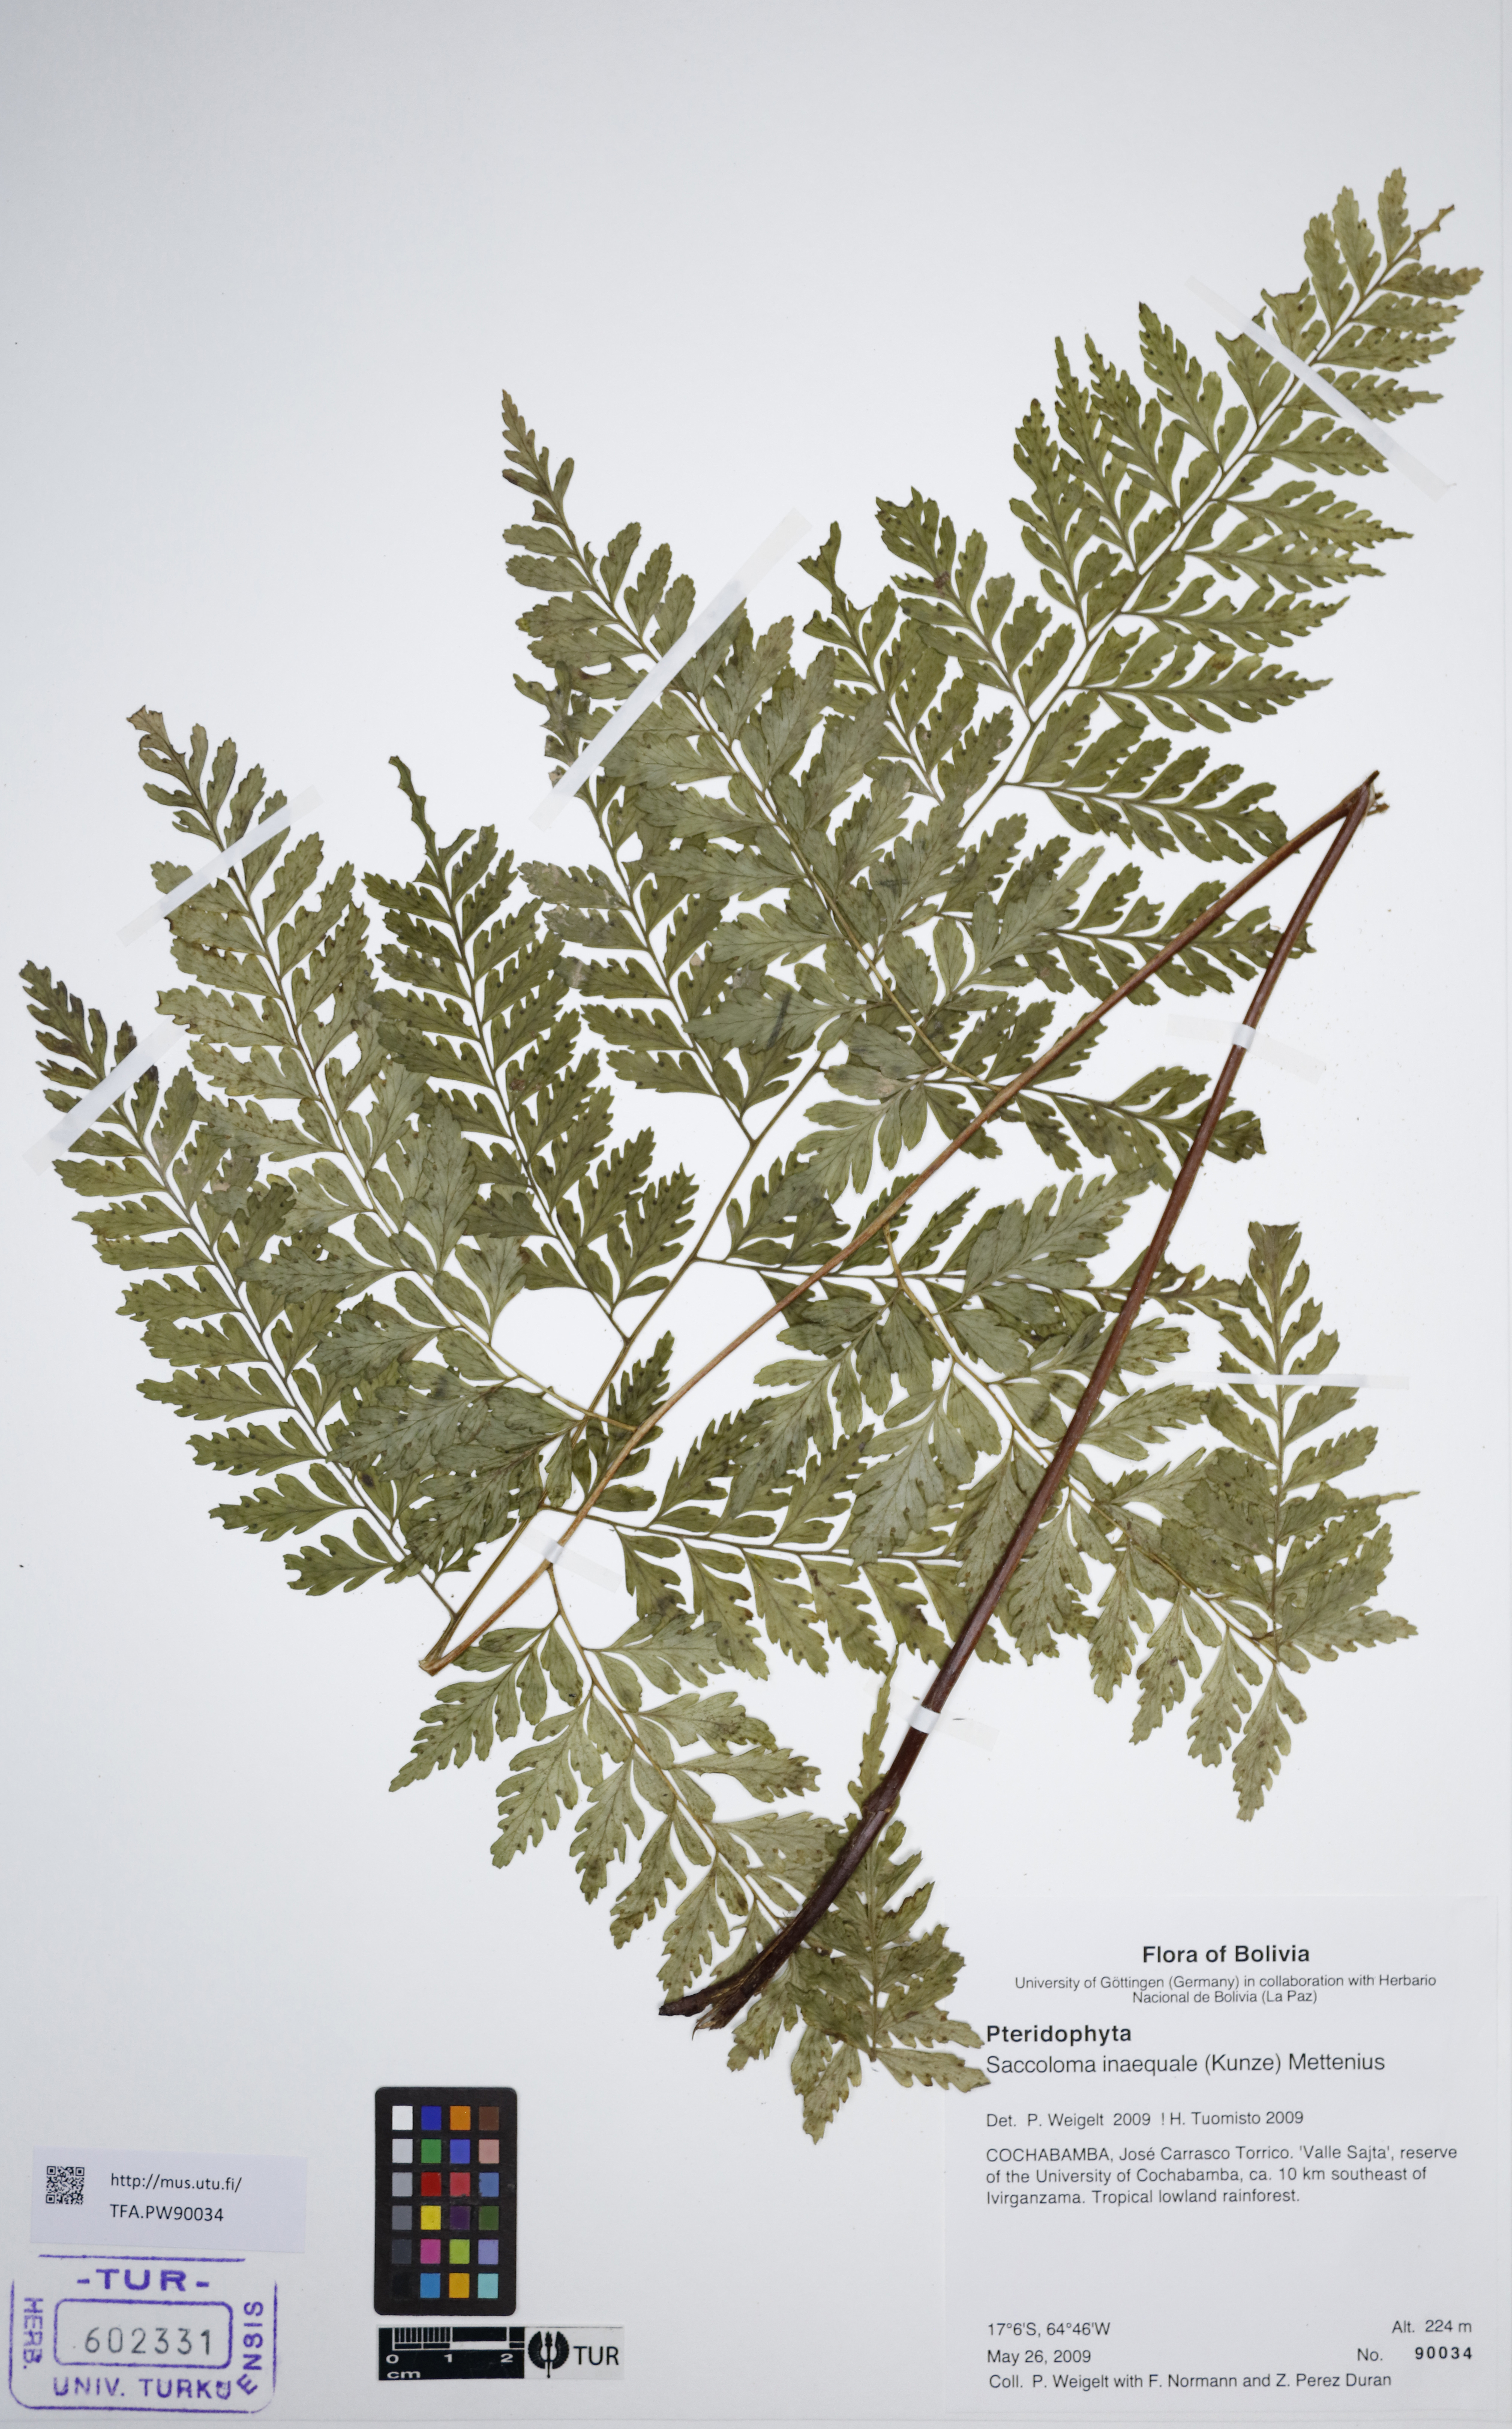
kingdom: Plantae
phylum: Tracheophyta
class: Polypodiopsida
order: Polypodiales
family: Saccolomataceae
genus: Saccoloma
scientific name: Saccoloma inaequale
